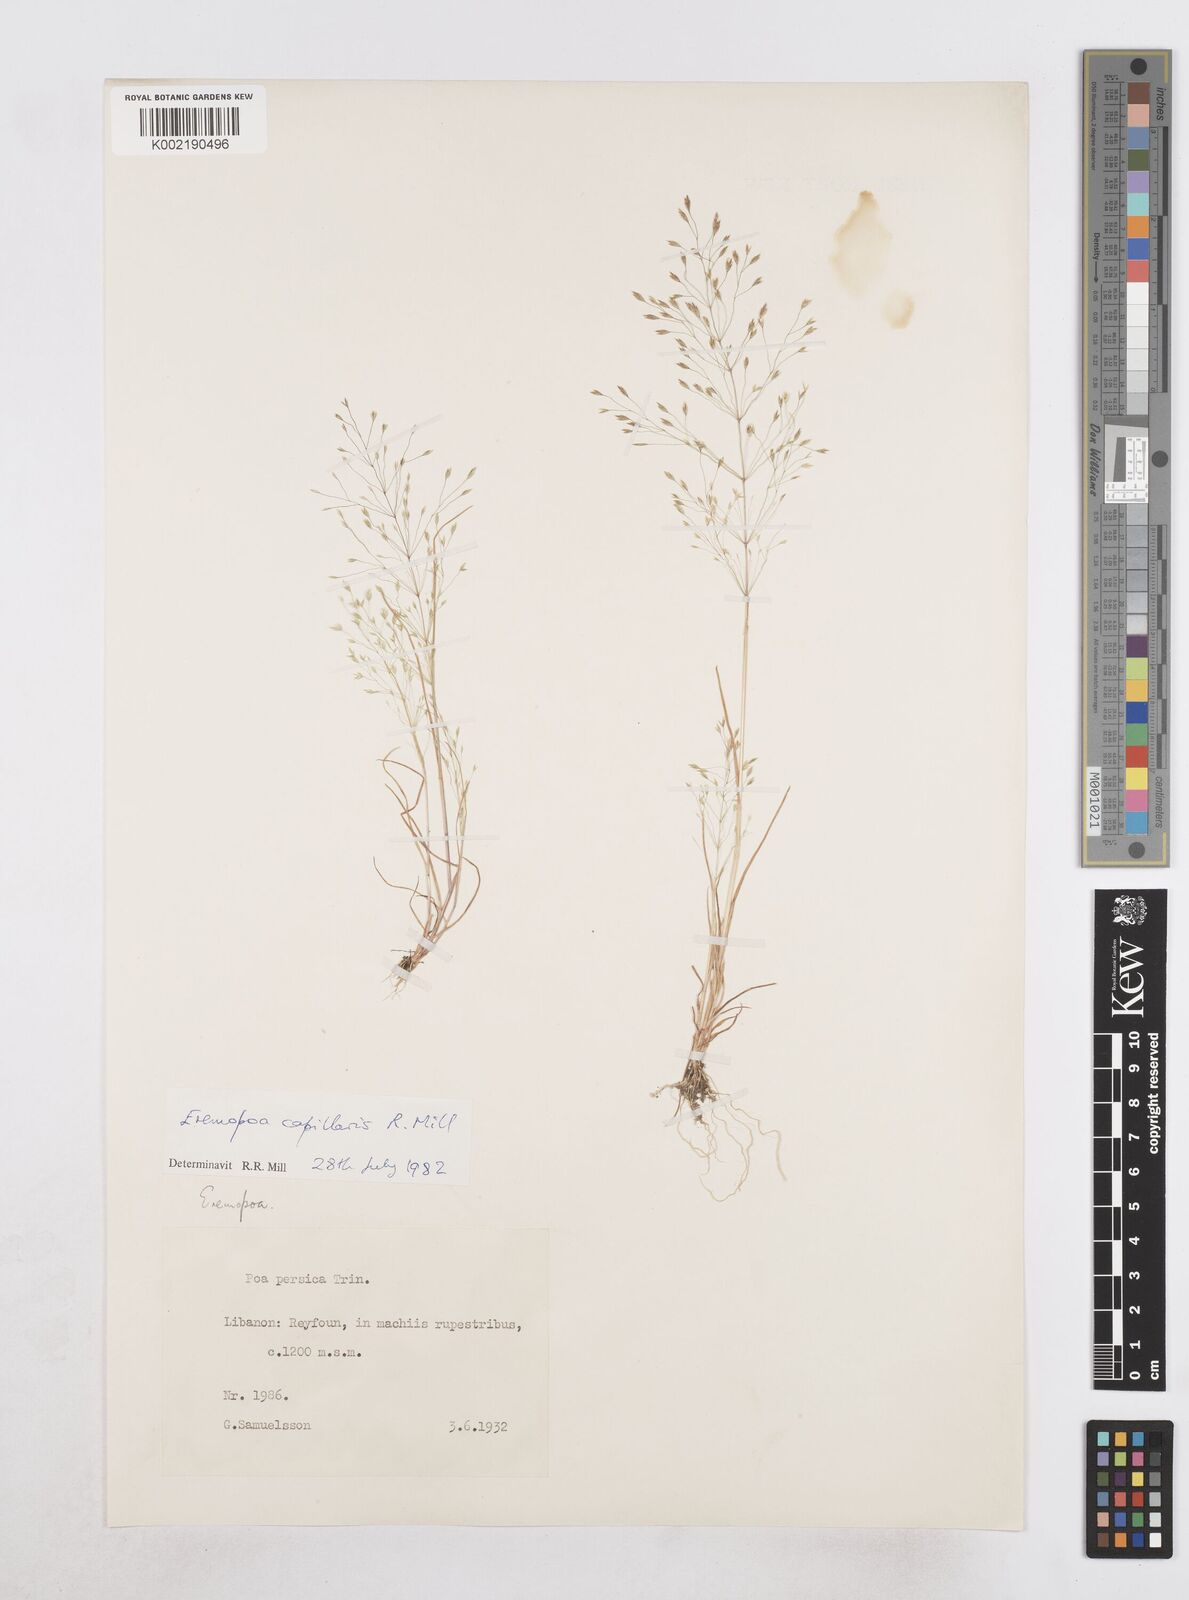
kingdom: Plantae
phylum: Tracheophyta
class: Liliopsida
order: Poales
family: Poaceae
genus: Poa
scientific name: Poa millii
